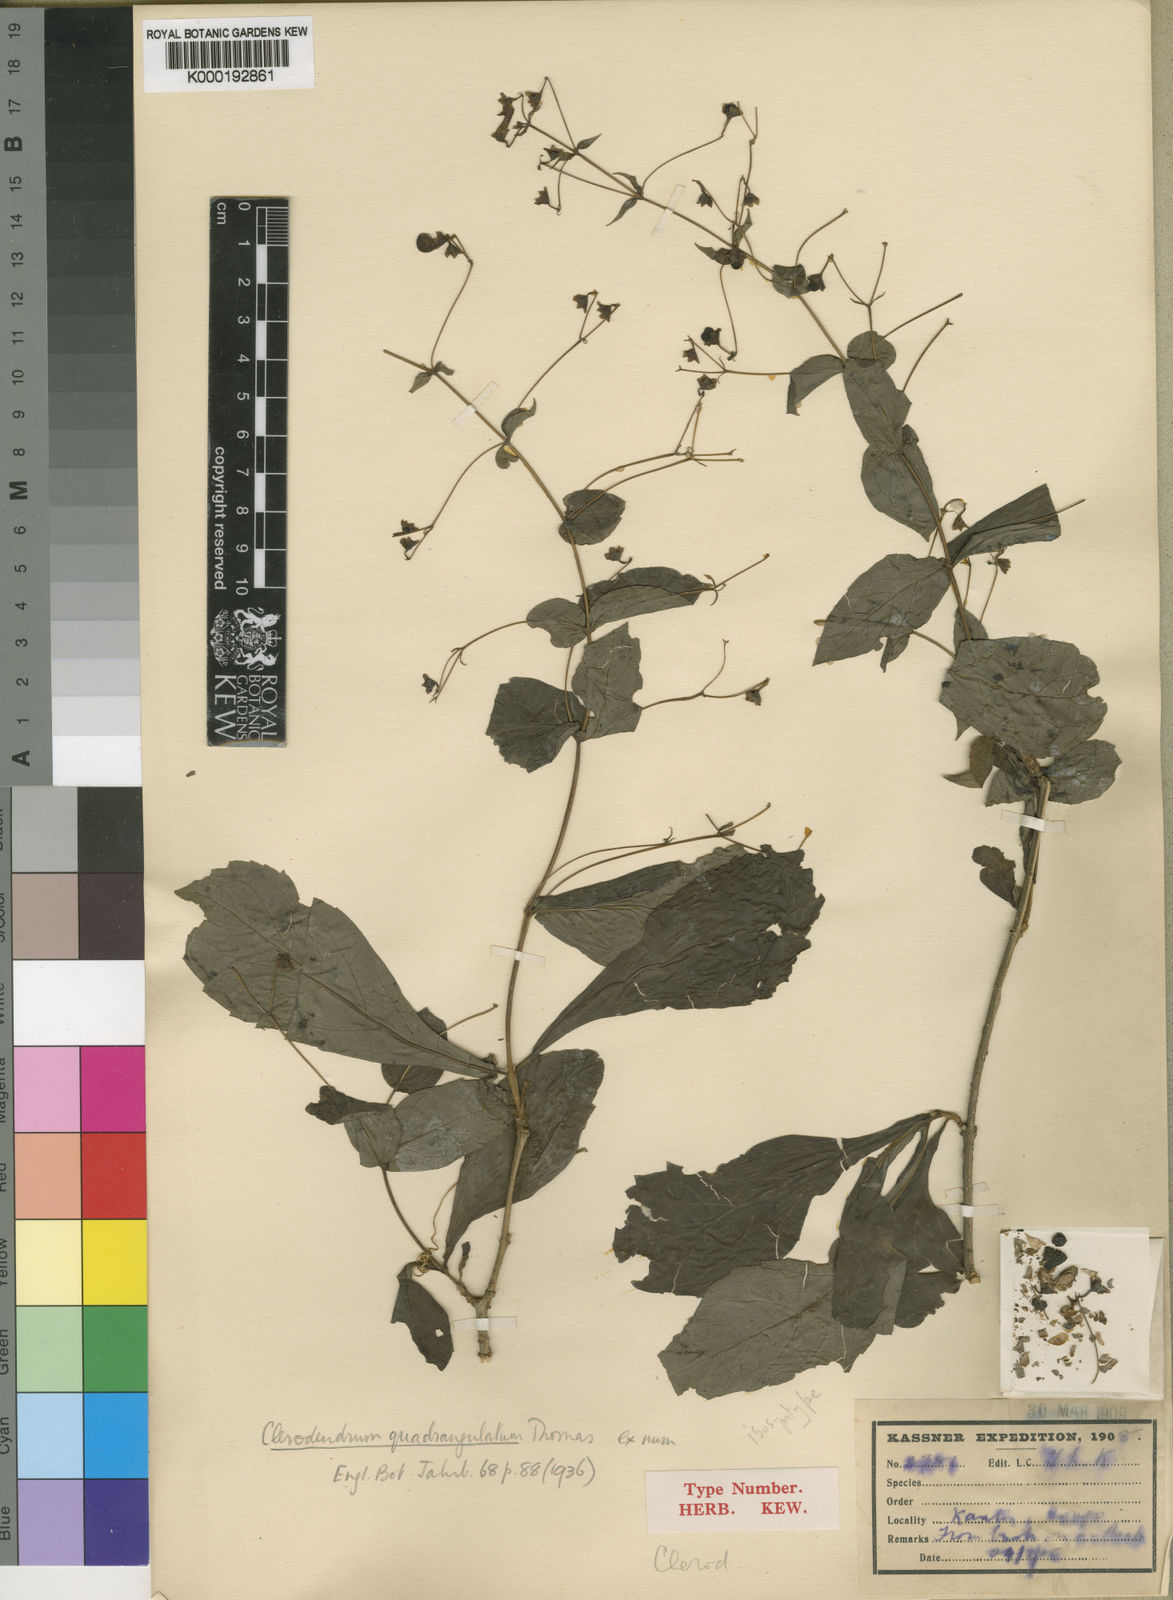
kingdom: Plantae
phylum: Tracheophyta
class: Magnoliopsida
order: Lamiales
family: Lamiaceae
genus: Rotheca
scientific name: Rotheca quadrangulata
